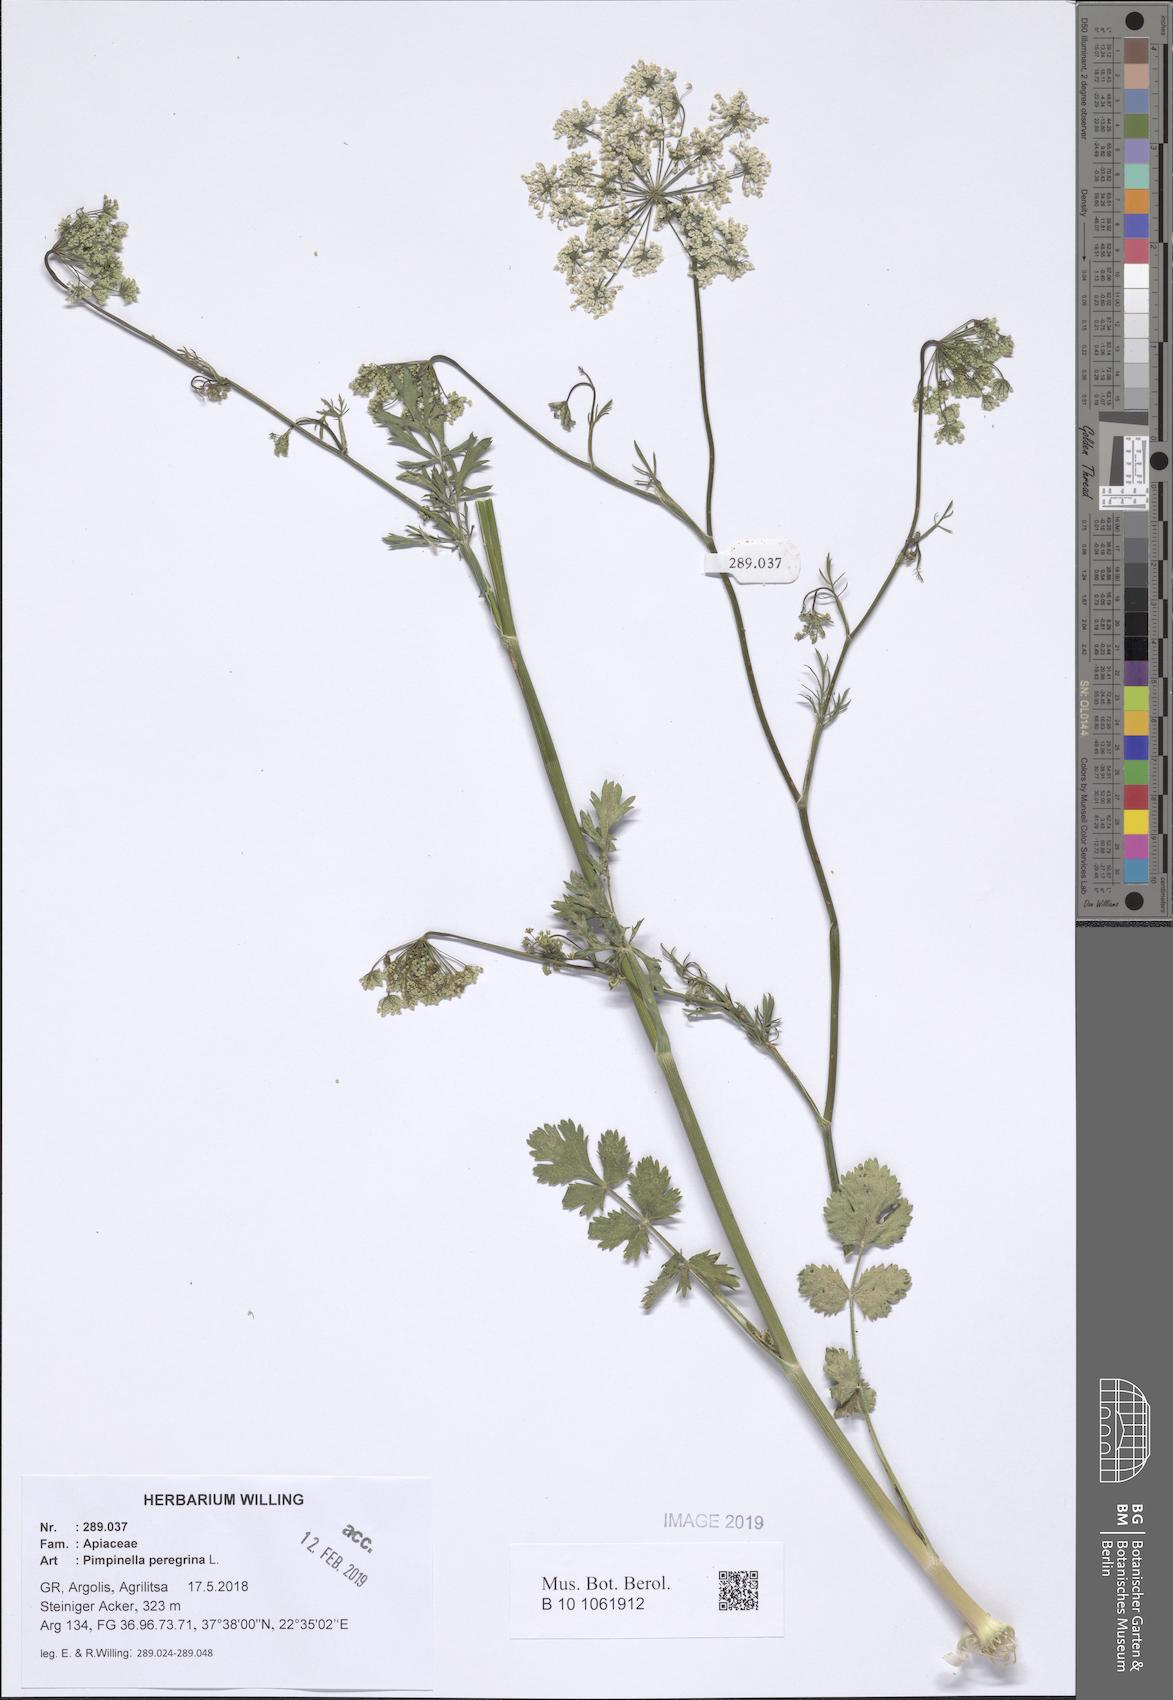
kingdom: Plantae
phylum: Tracheophyta
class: Magnoliopsida
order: Apiales
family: Apiaceae
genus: Pimpinella
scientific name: Pimpinella peregrina
